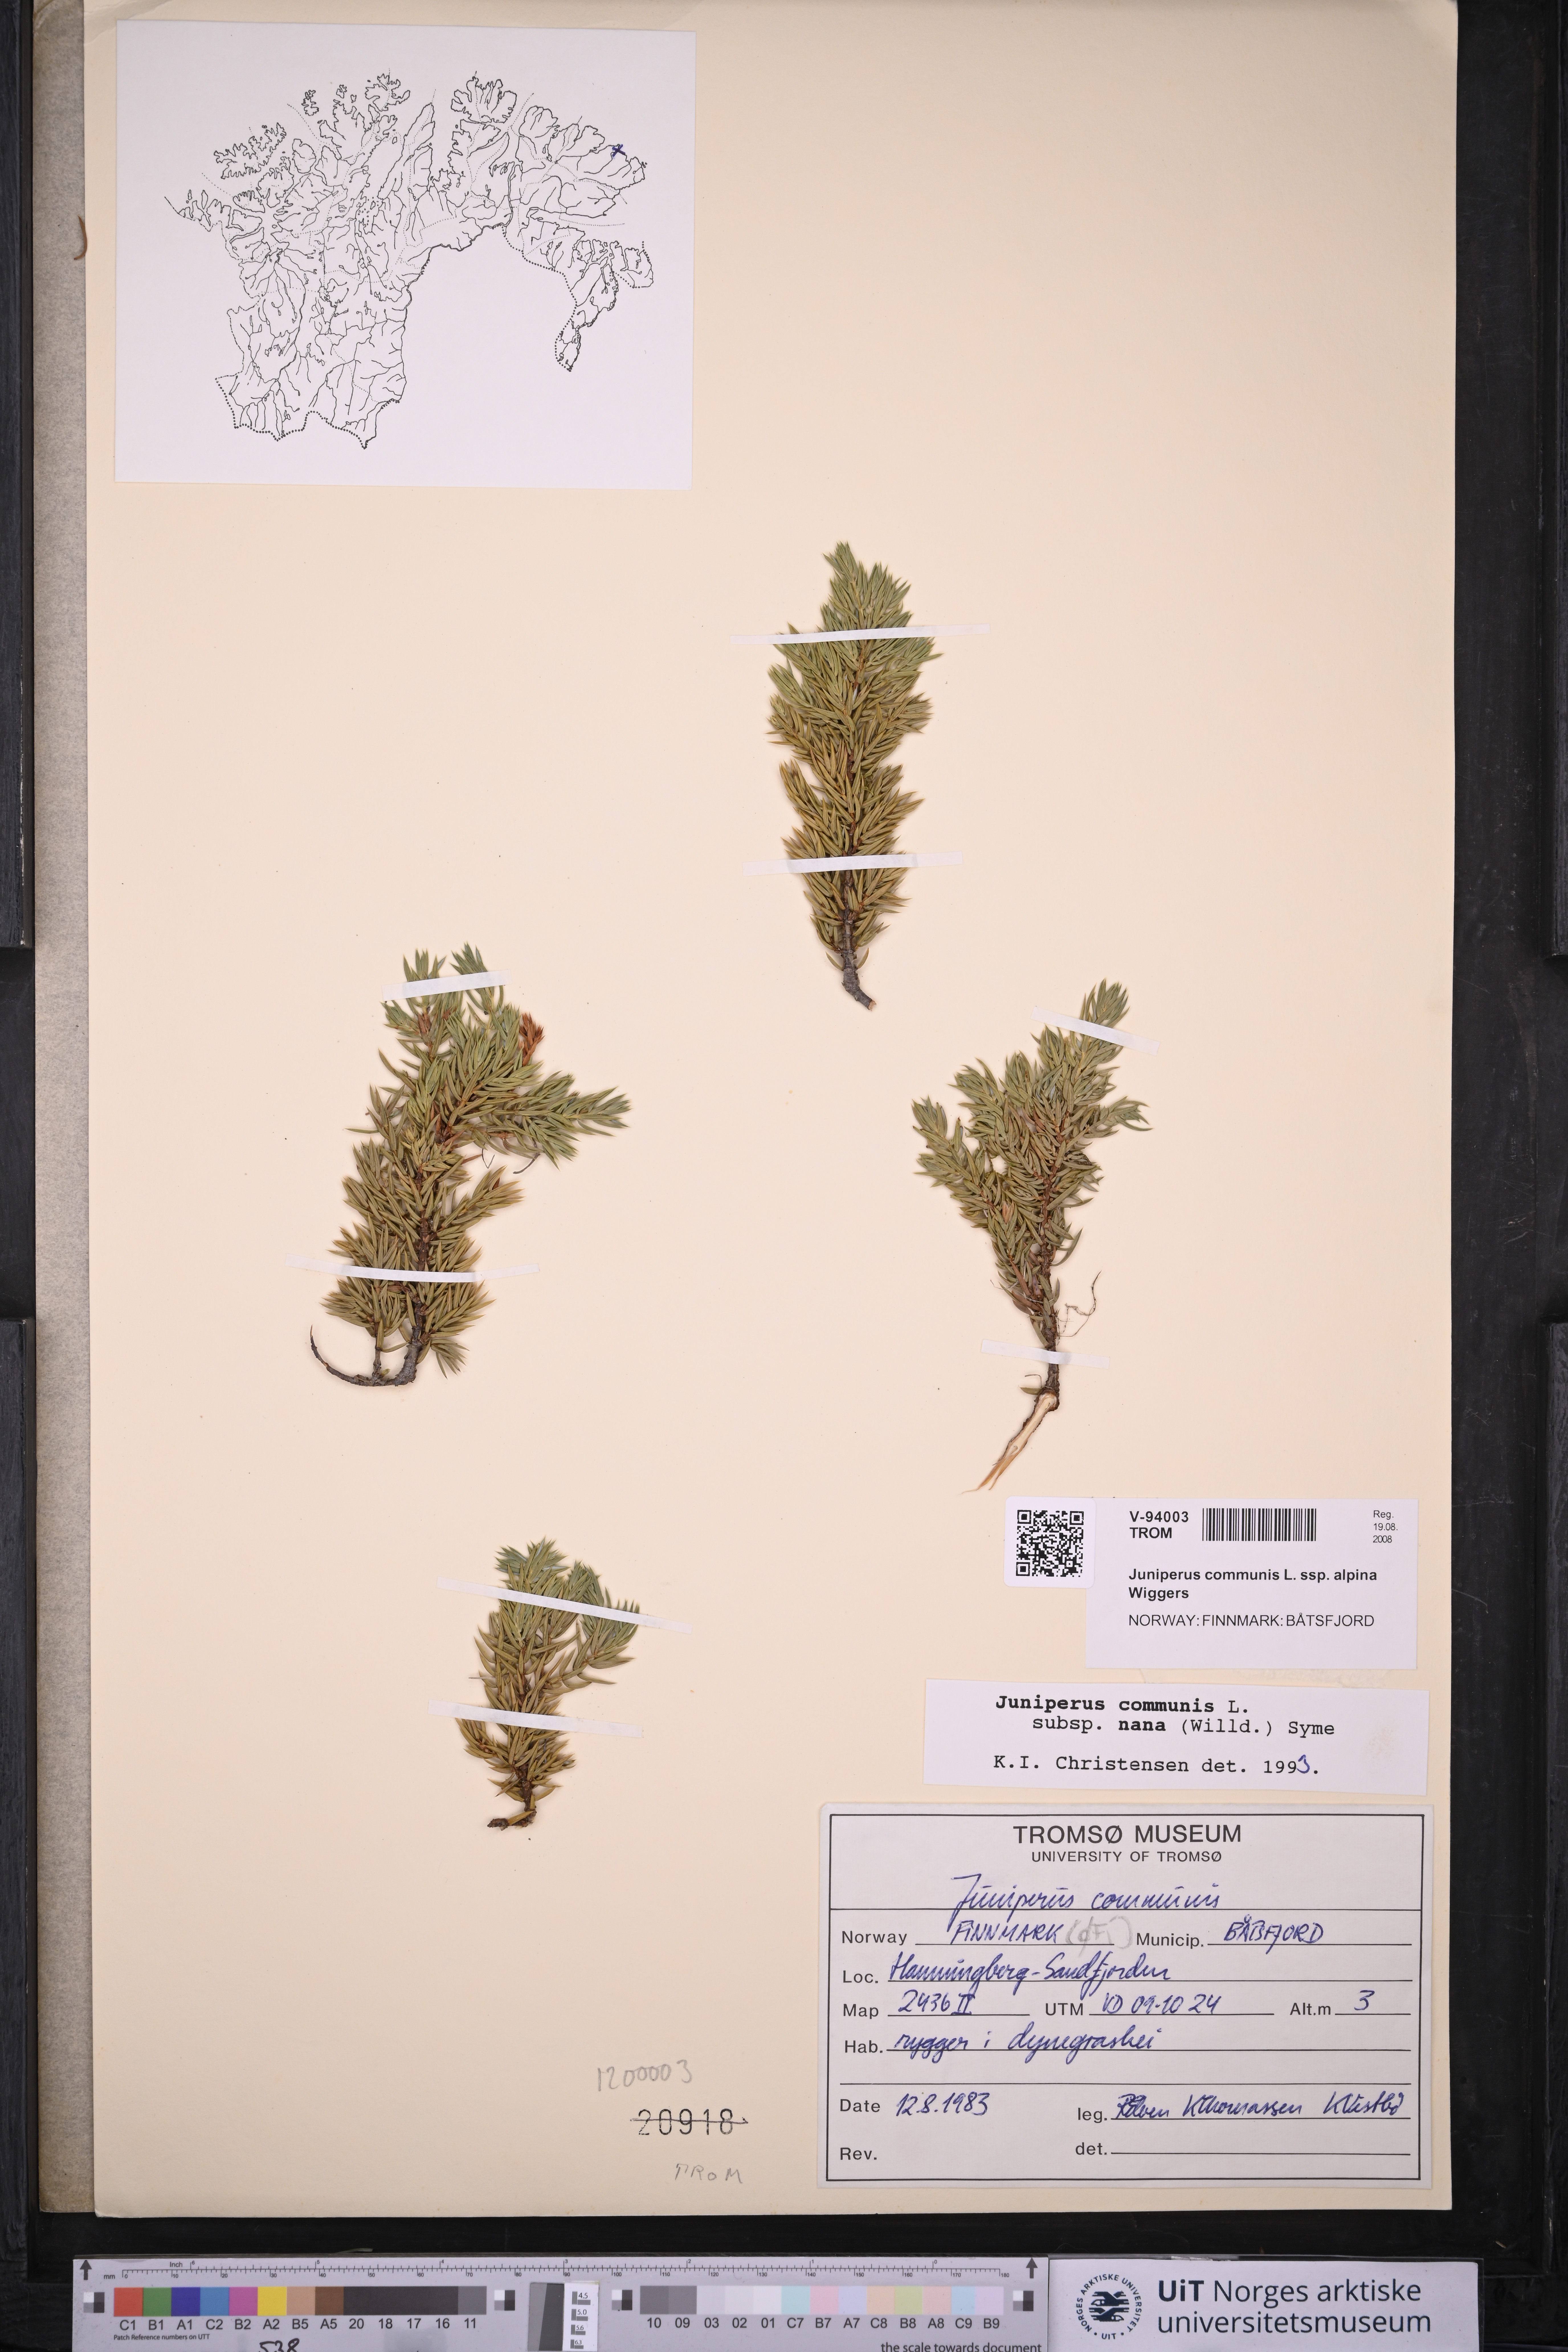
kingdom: Plantae
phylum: Tracheophyta
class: Pinopsida
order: Pinales
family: Cupressaceae
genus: Juniperus
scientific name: Juniperus communis
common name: Common juniper
